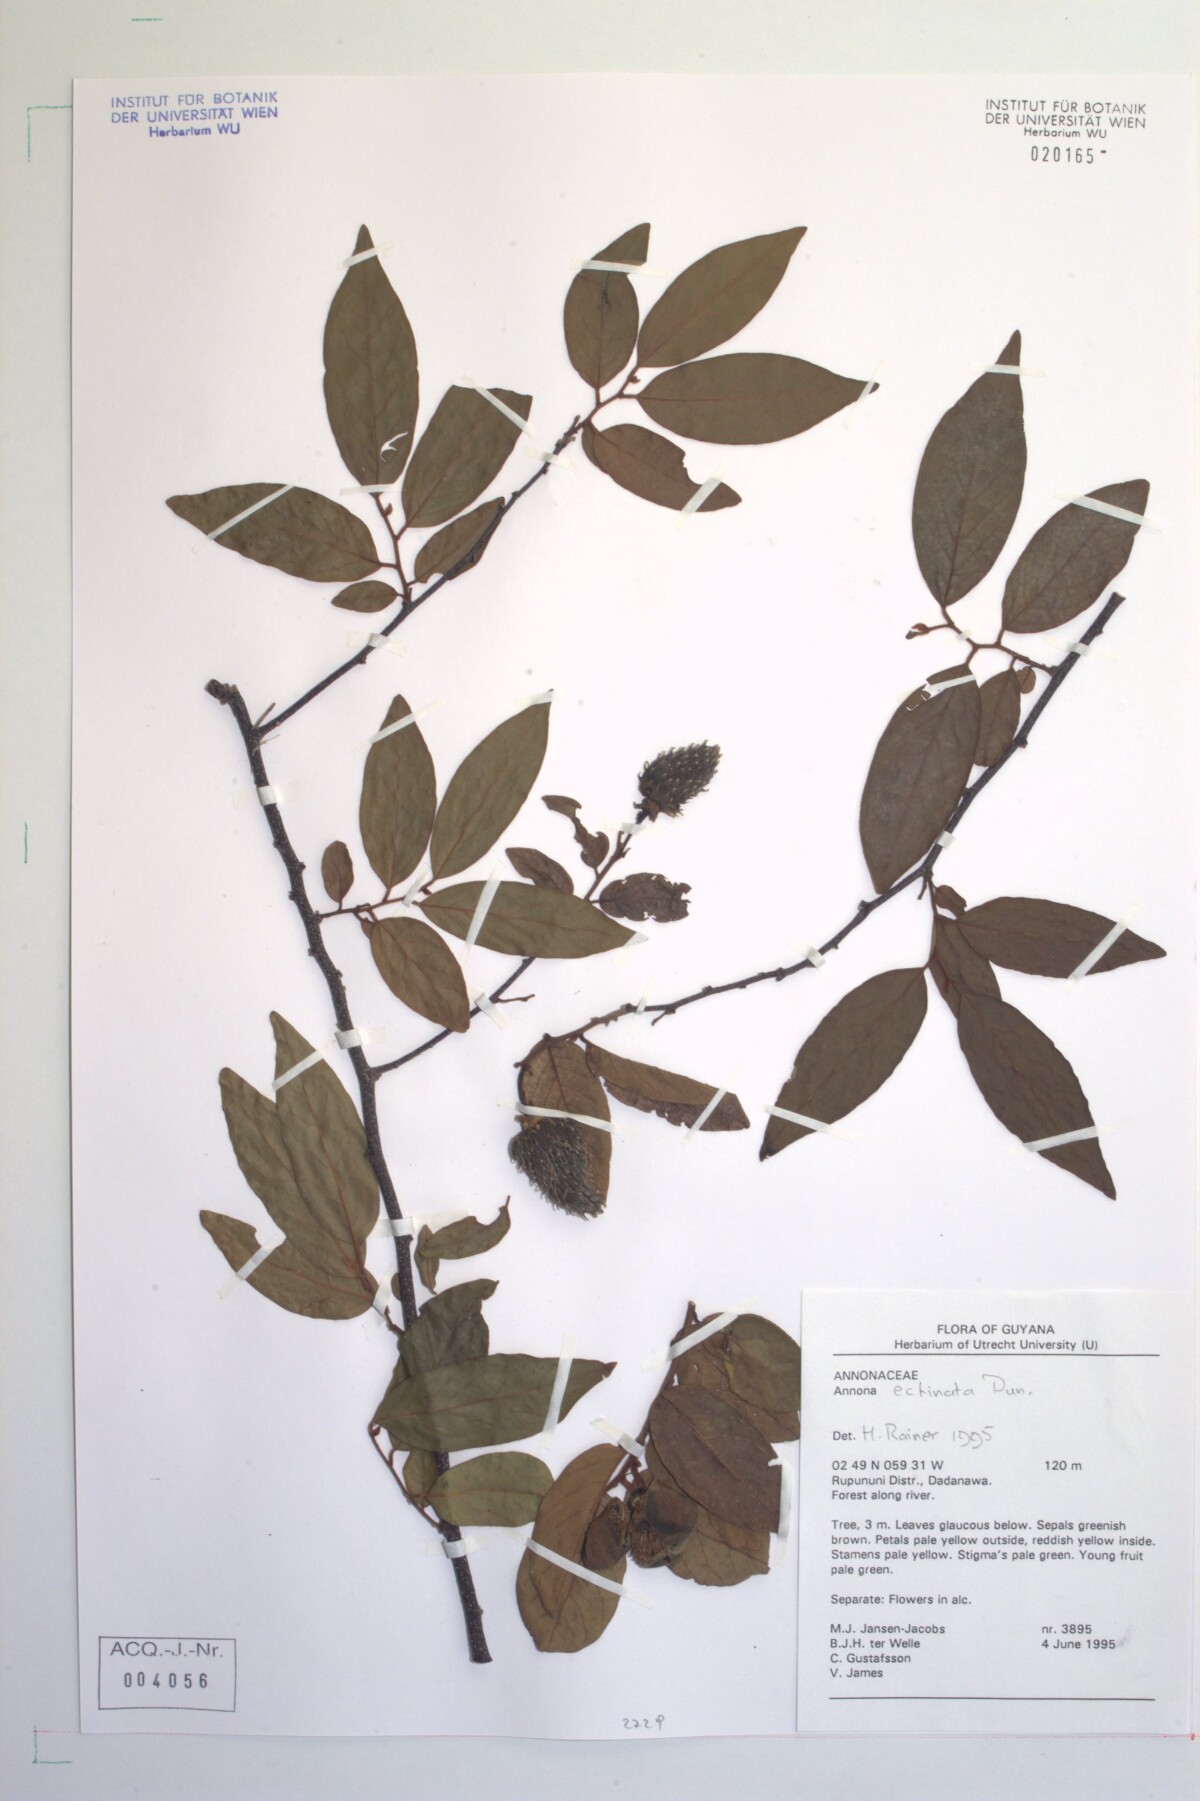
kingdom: Plantae
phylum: Tracheophyta
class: Magnoliopsida
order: Magnoliales
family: Annonaceae
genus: Annona
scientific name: Annona
